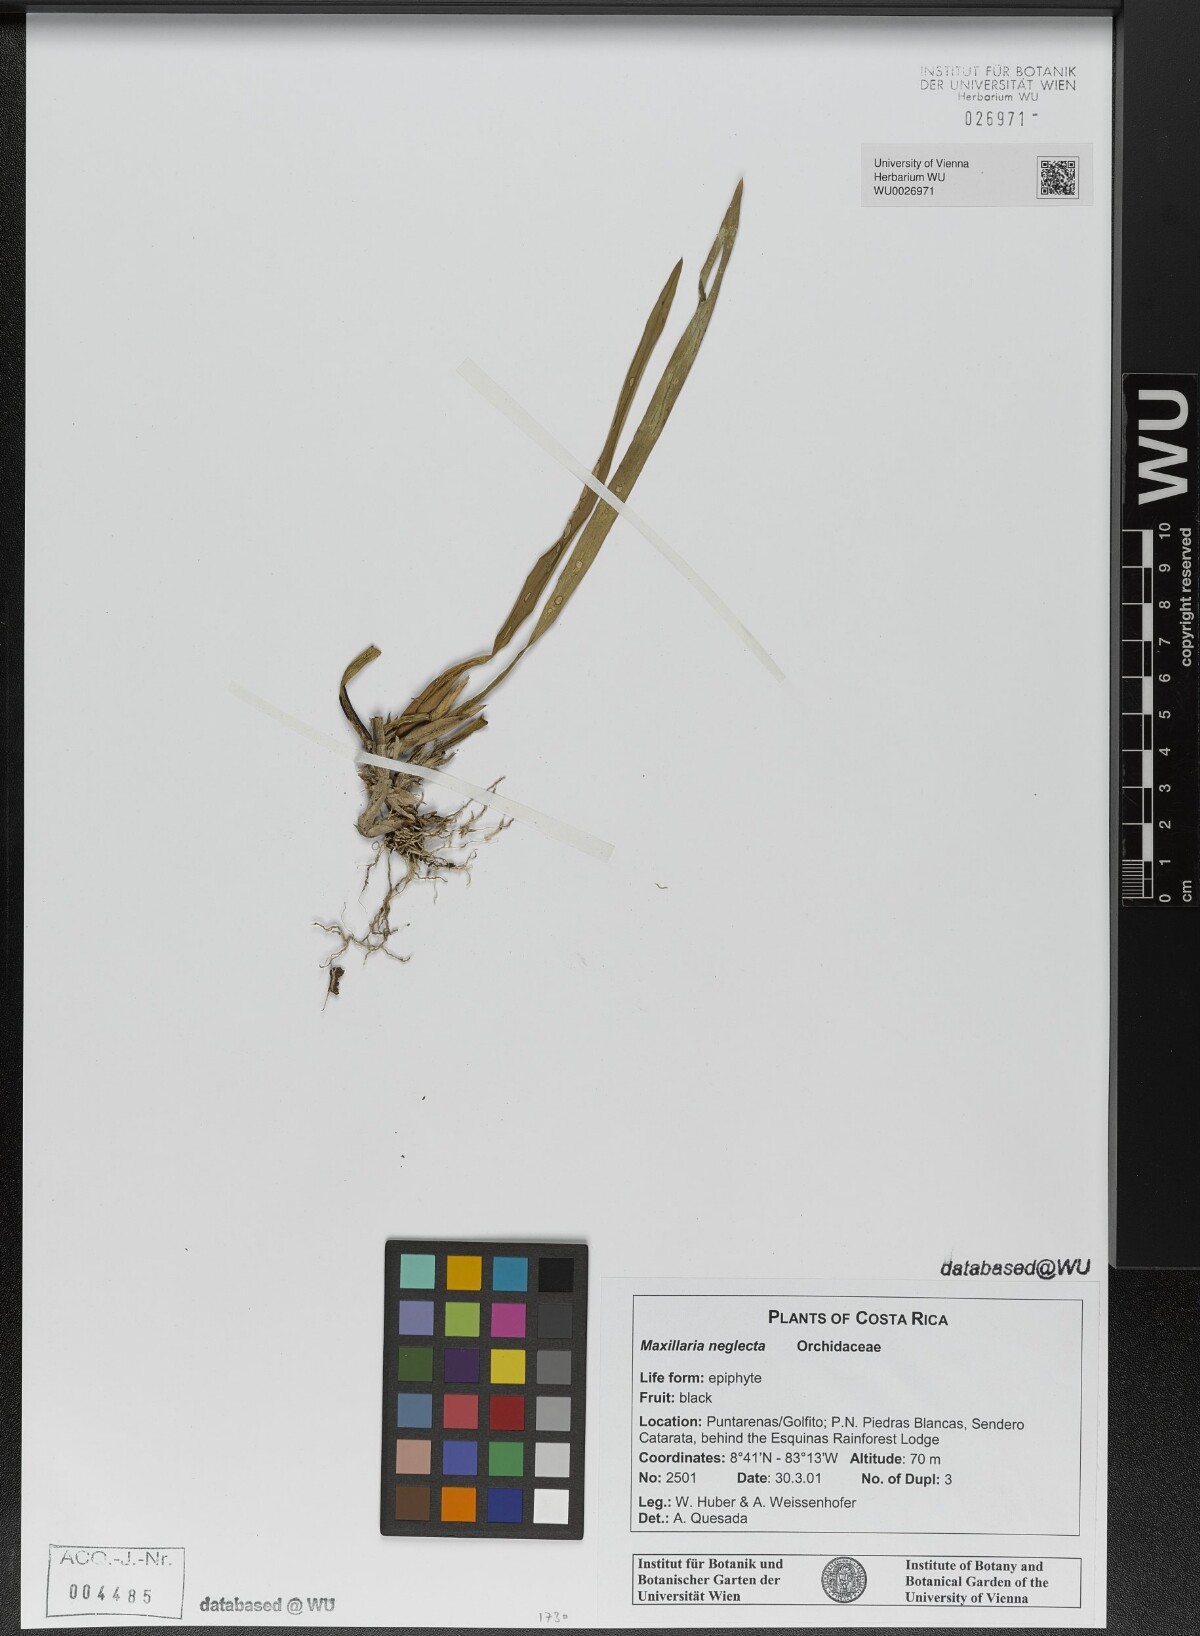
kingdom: Plantae
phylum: Tracheophyta
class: Liliopsida
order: Asparagales
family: Orchidaceae
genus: Maxillaria
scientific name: Maxillaria neglecta
